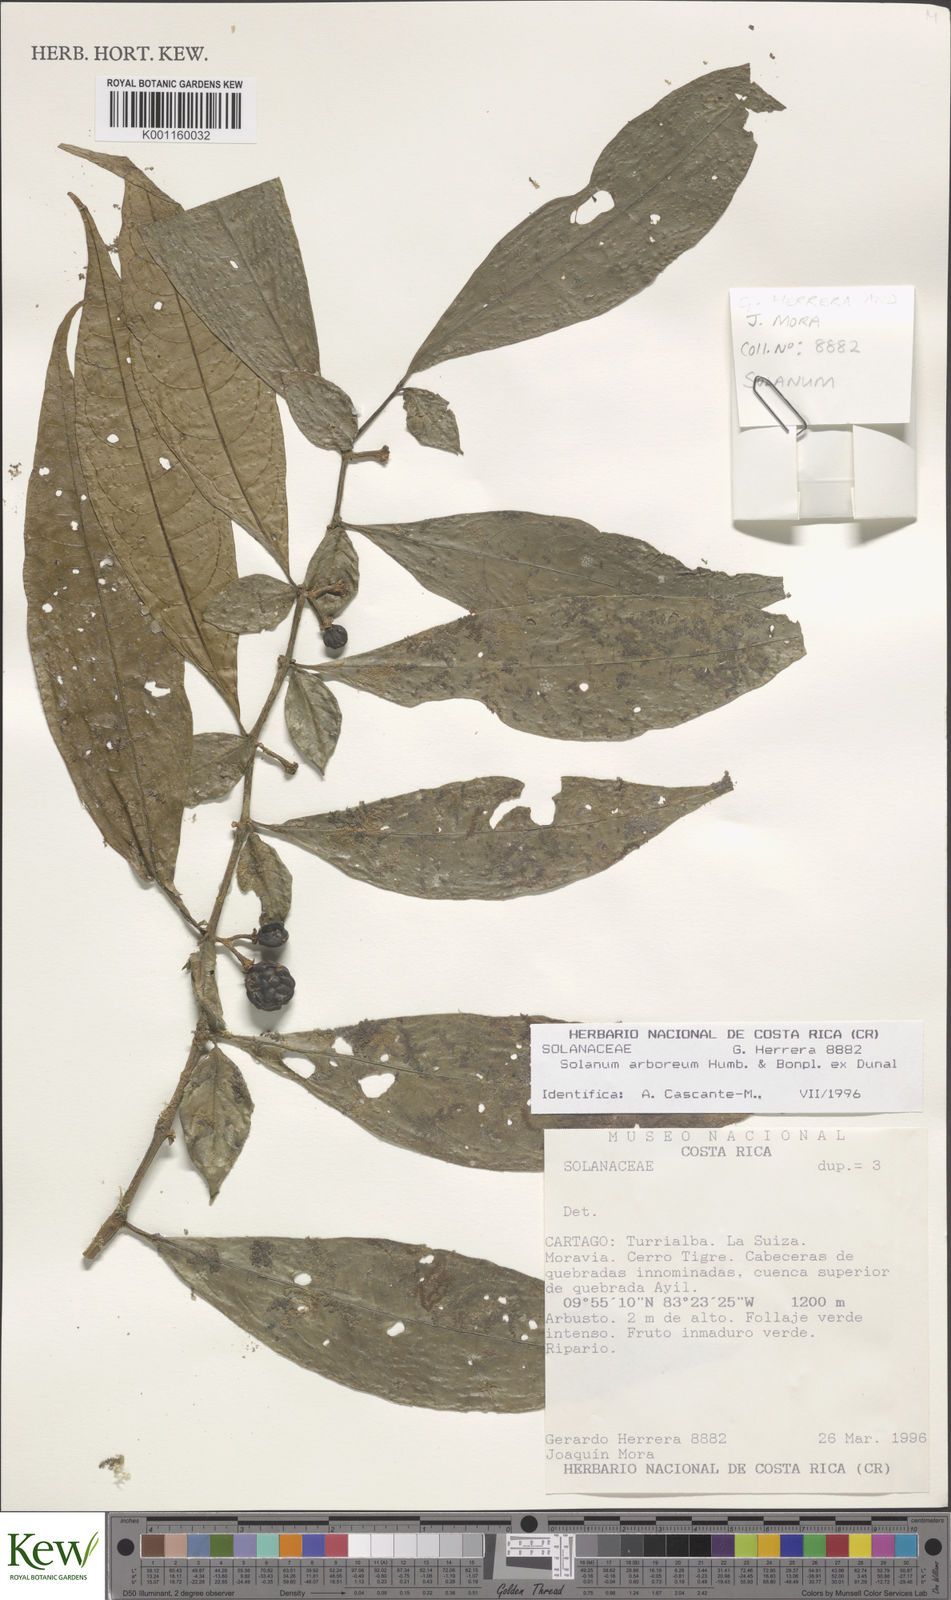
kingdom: Plantae
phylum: Tracheophyta
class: Magnoliopsida
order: Solanales
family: Solanaceae
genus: Solanum
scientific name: Solanum arboreum
